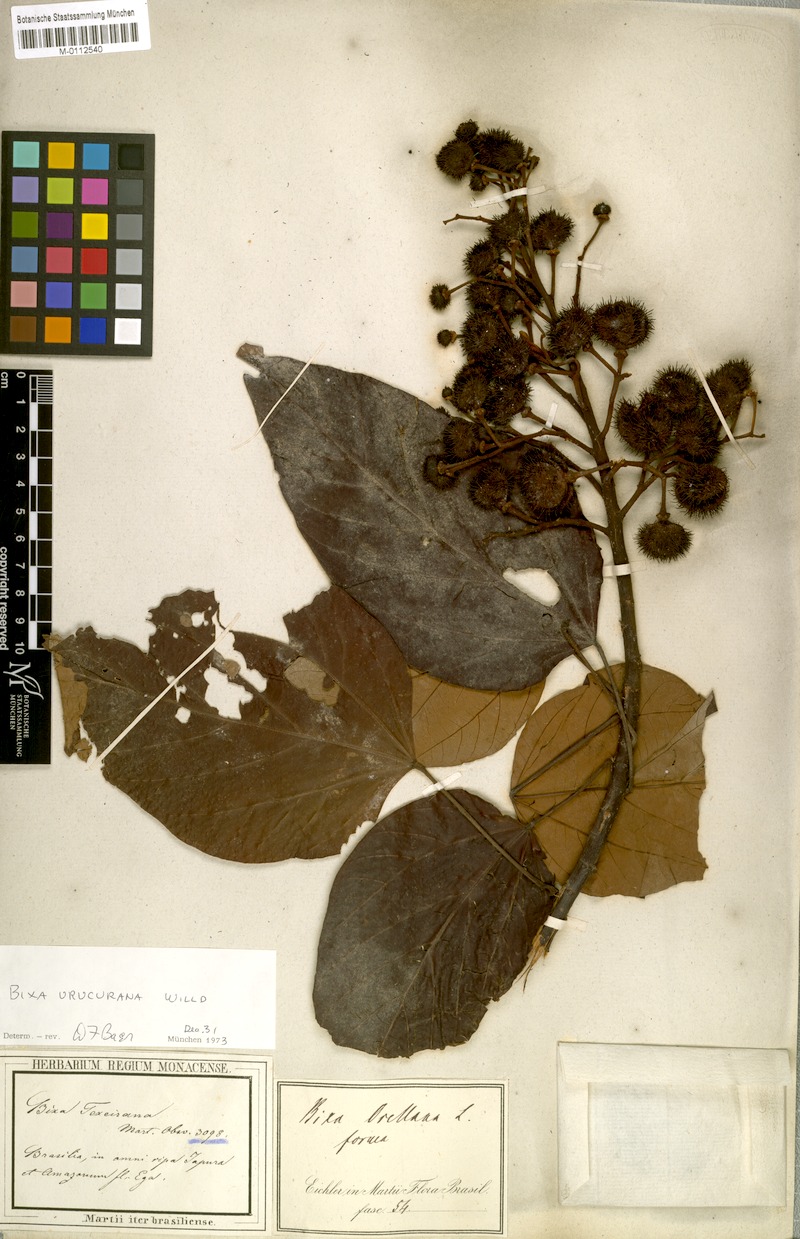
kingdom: Plantae
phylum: Tracheophyta
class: Magnoliopsida
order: Malvales
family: Bixaceae
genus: Bixa
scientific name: Bixa
